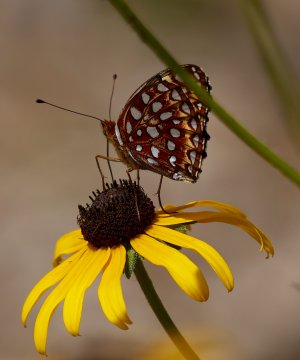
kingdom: Animalia
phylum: Arthropoda
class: Insecta
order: Lepidoptera
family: Nymphalidae
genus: Speyeria
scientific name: Speyeria aphrodite
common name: Aphrodite Fritillary
